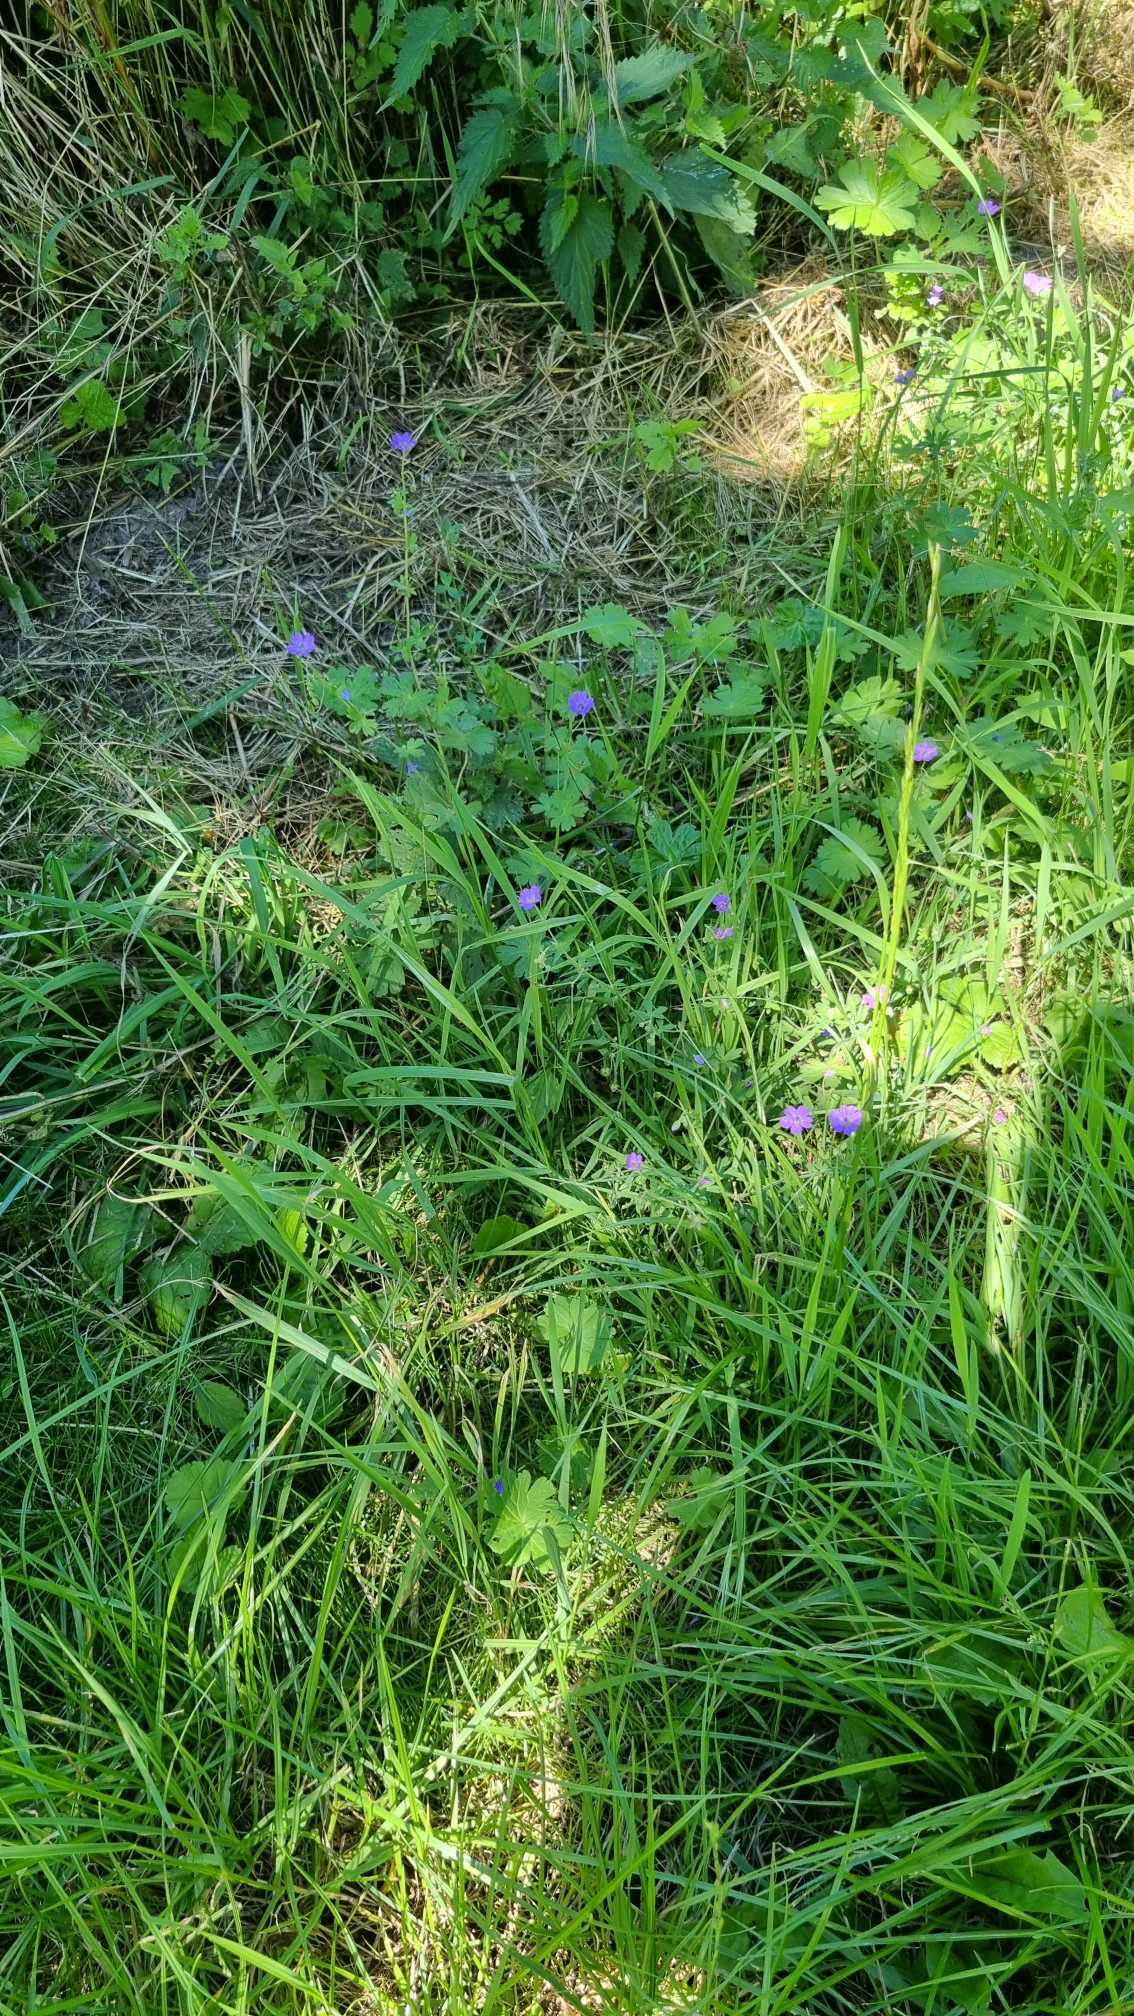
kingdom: Plantae
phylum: Tracheophyta
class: Magnoliopsida
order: Geraniales
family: Geraniaceae
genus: Geranium
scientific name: Geranium pyrenaicum
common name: Pyrenæisk storkenæb
